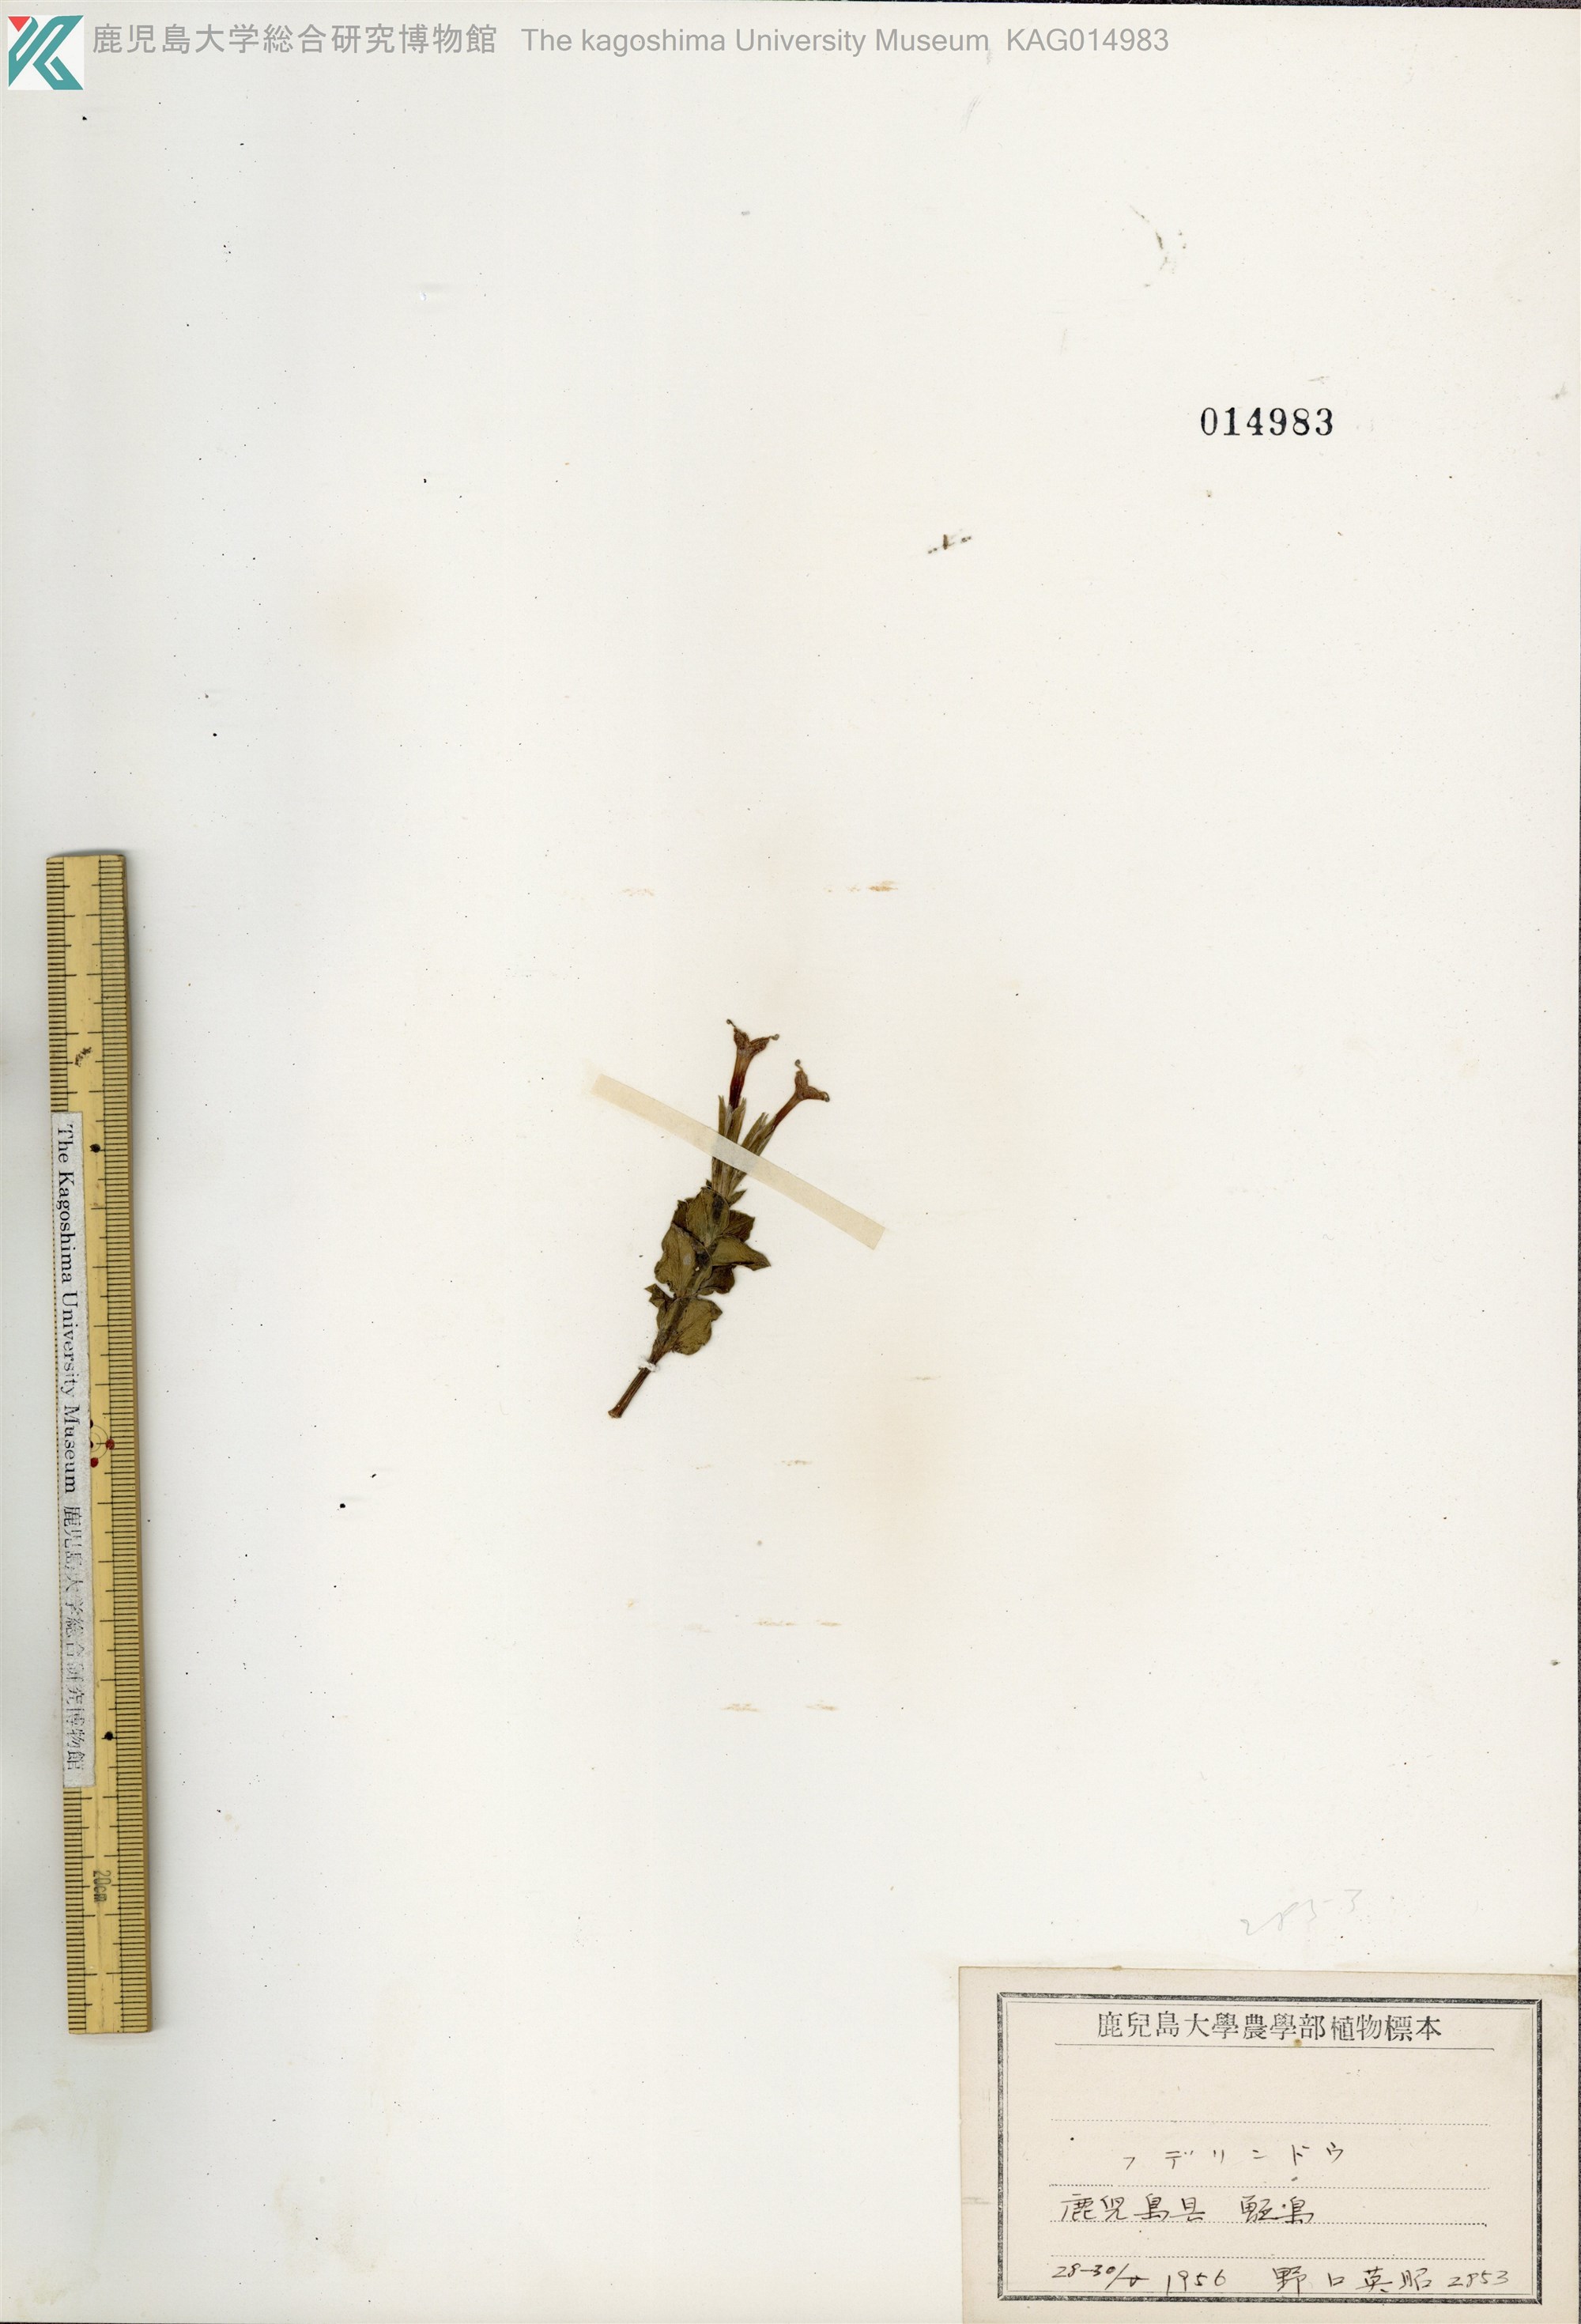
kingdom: Plantae
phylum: Tracheophyta
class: Magnoliopsida
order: Gentianales
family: Gentianaceae
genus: Gentiana
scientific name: Gentiana zollingeri
